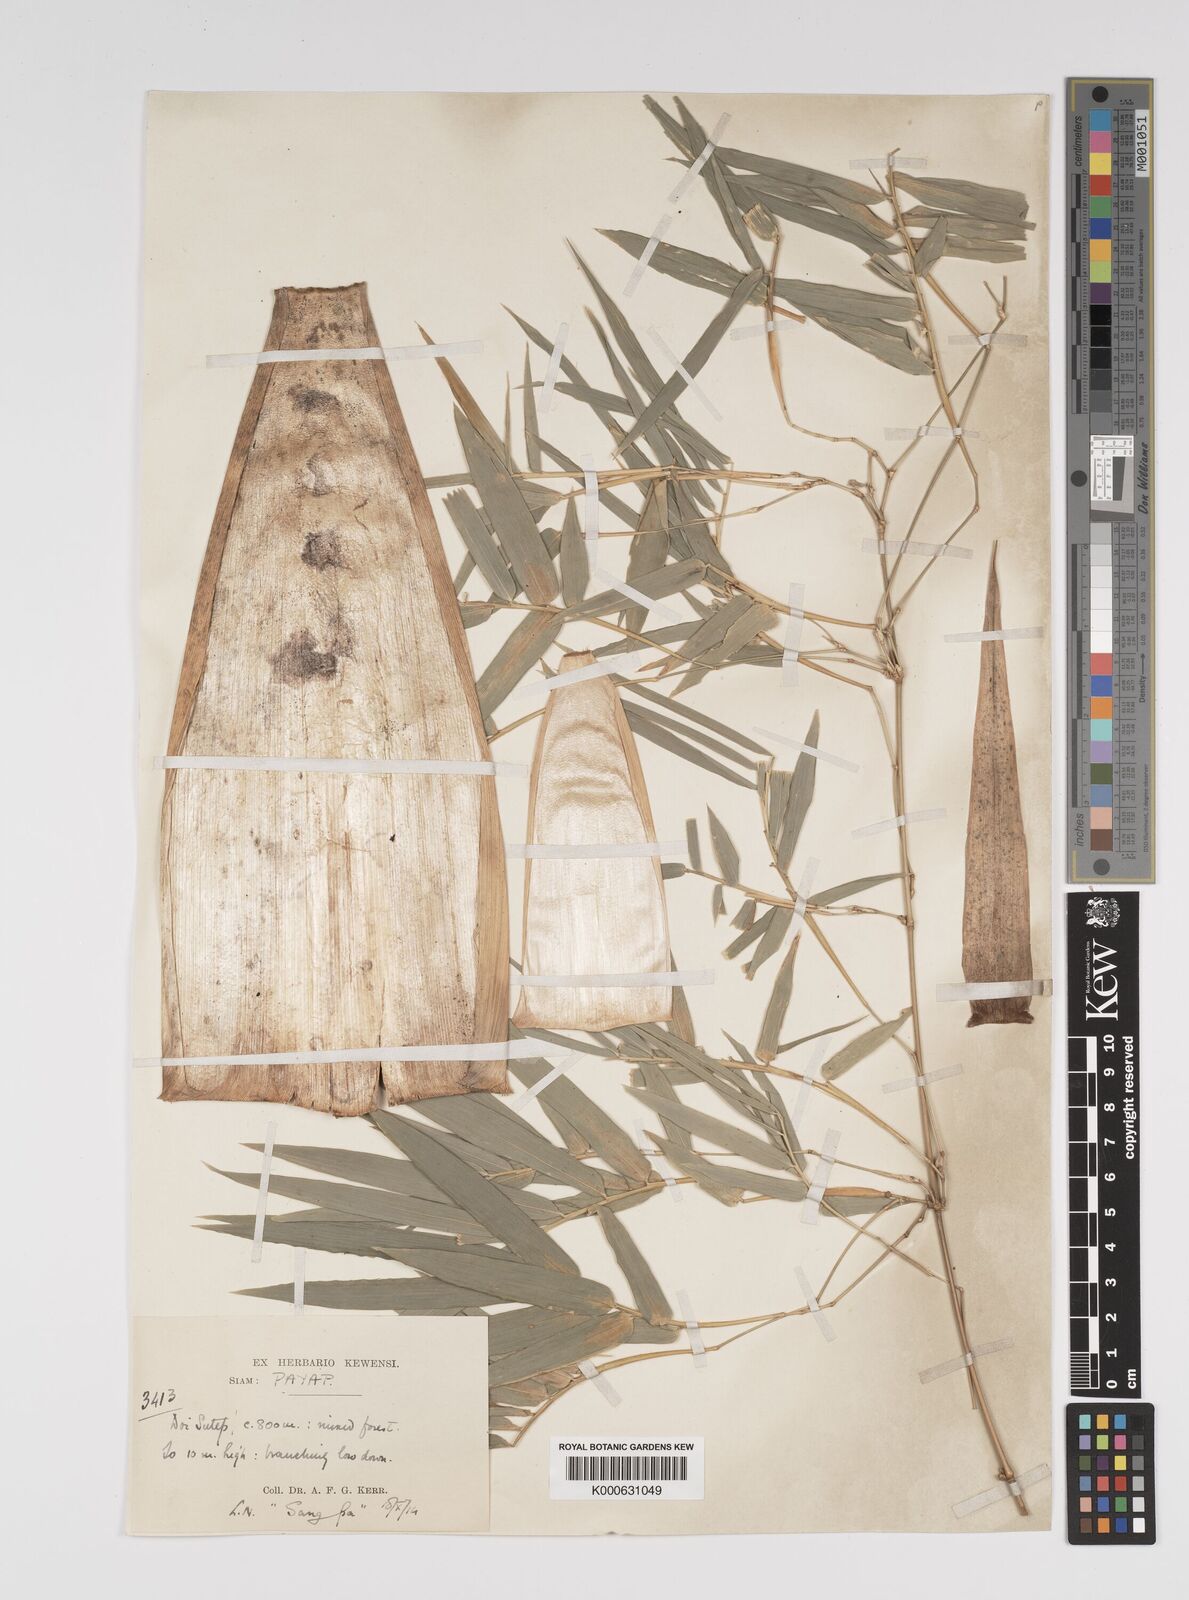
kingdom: Plantae
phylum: Tracheophyta
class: Liliopsida
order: Poales
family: Poaceae
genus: Bambusa
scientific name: Bambusa
